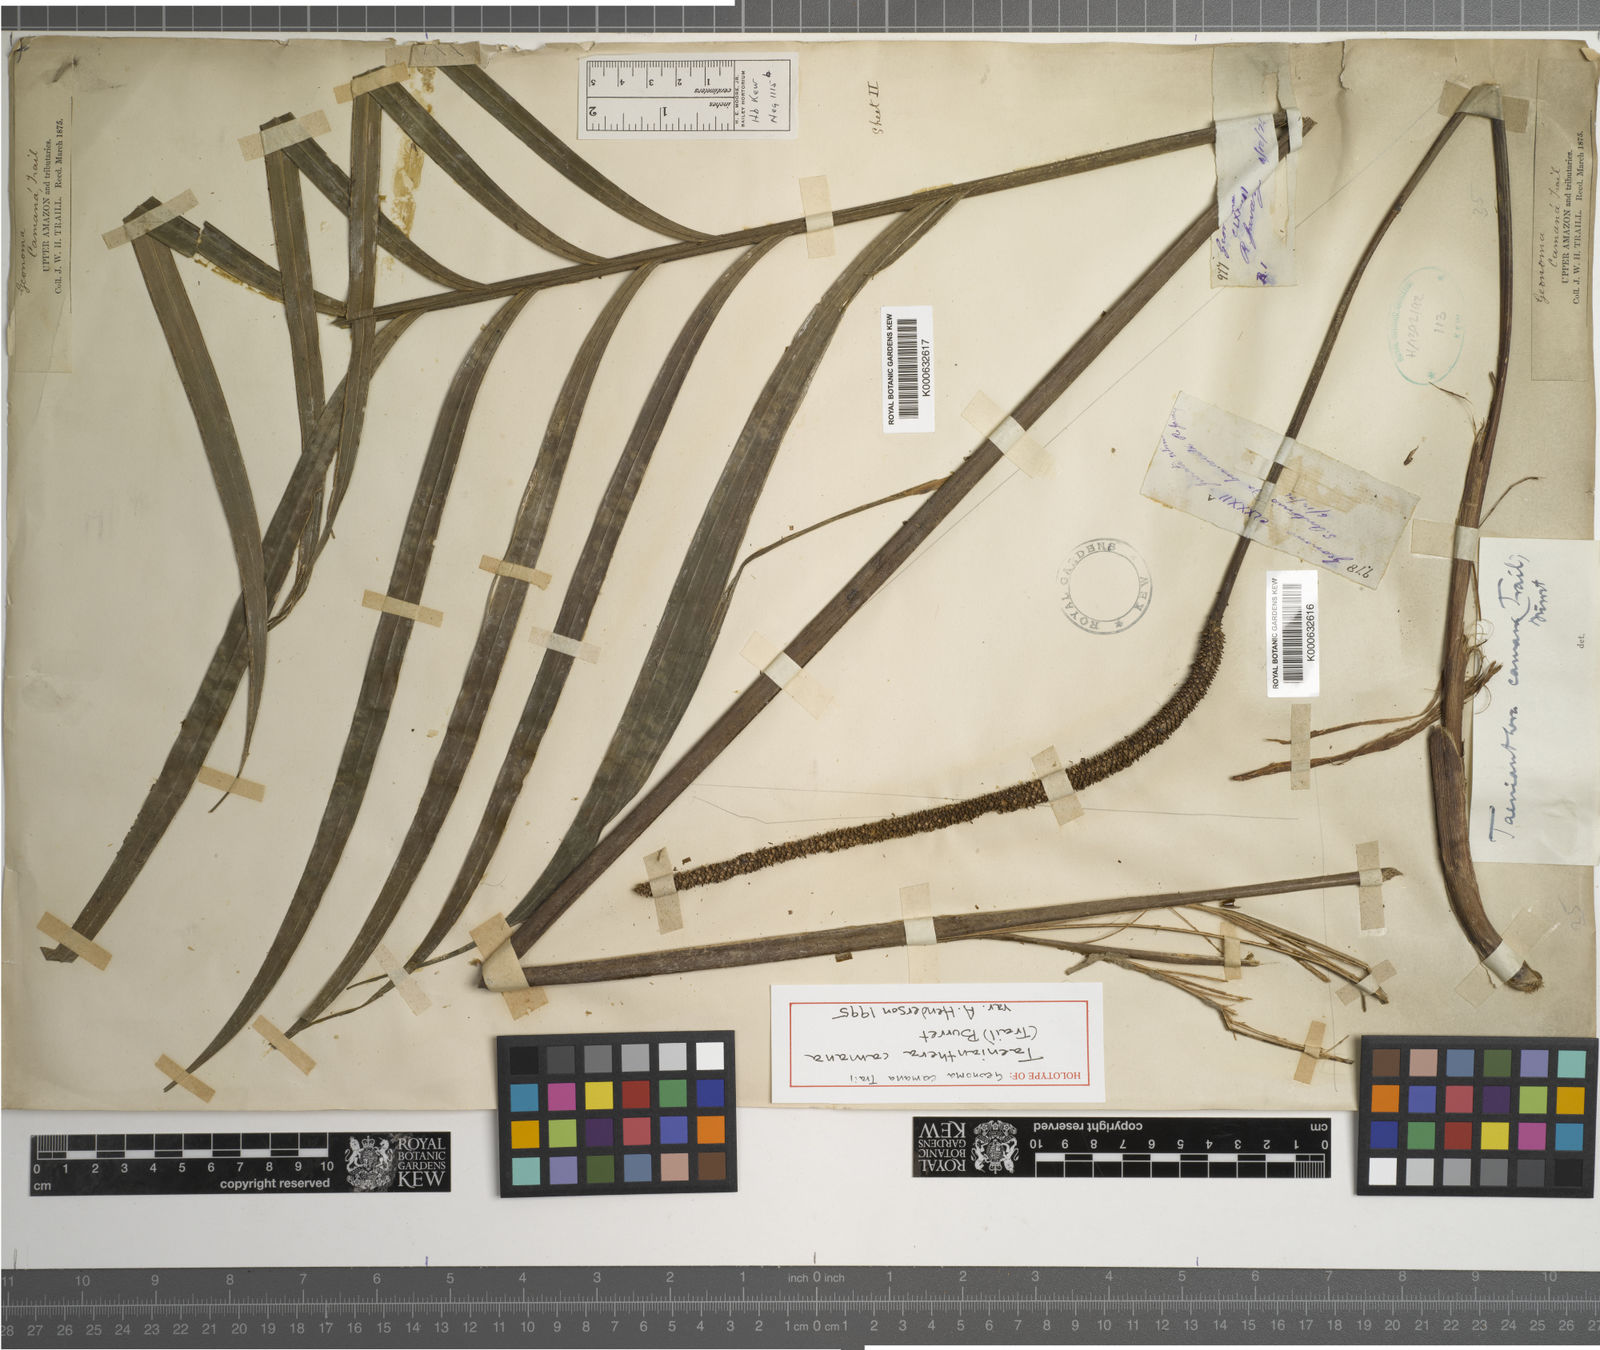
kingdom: Plantae
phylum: Tracheophyta
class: Liliopsida
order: Arecales
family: Arecaceae
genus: Geonoma
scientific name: Geonoma camana
